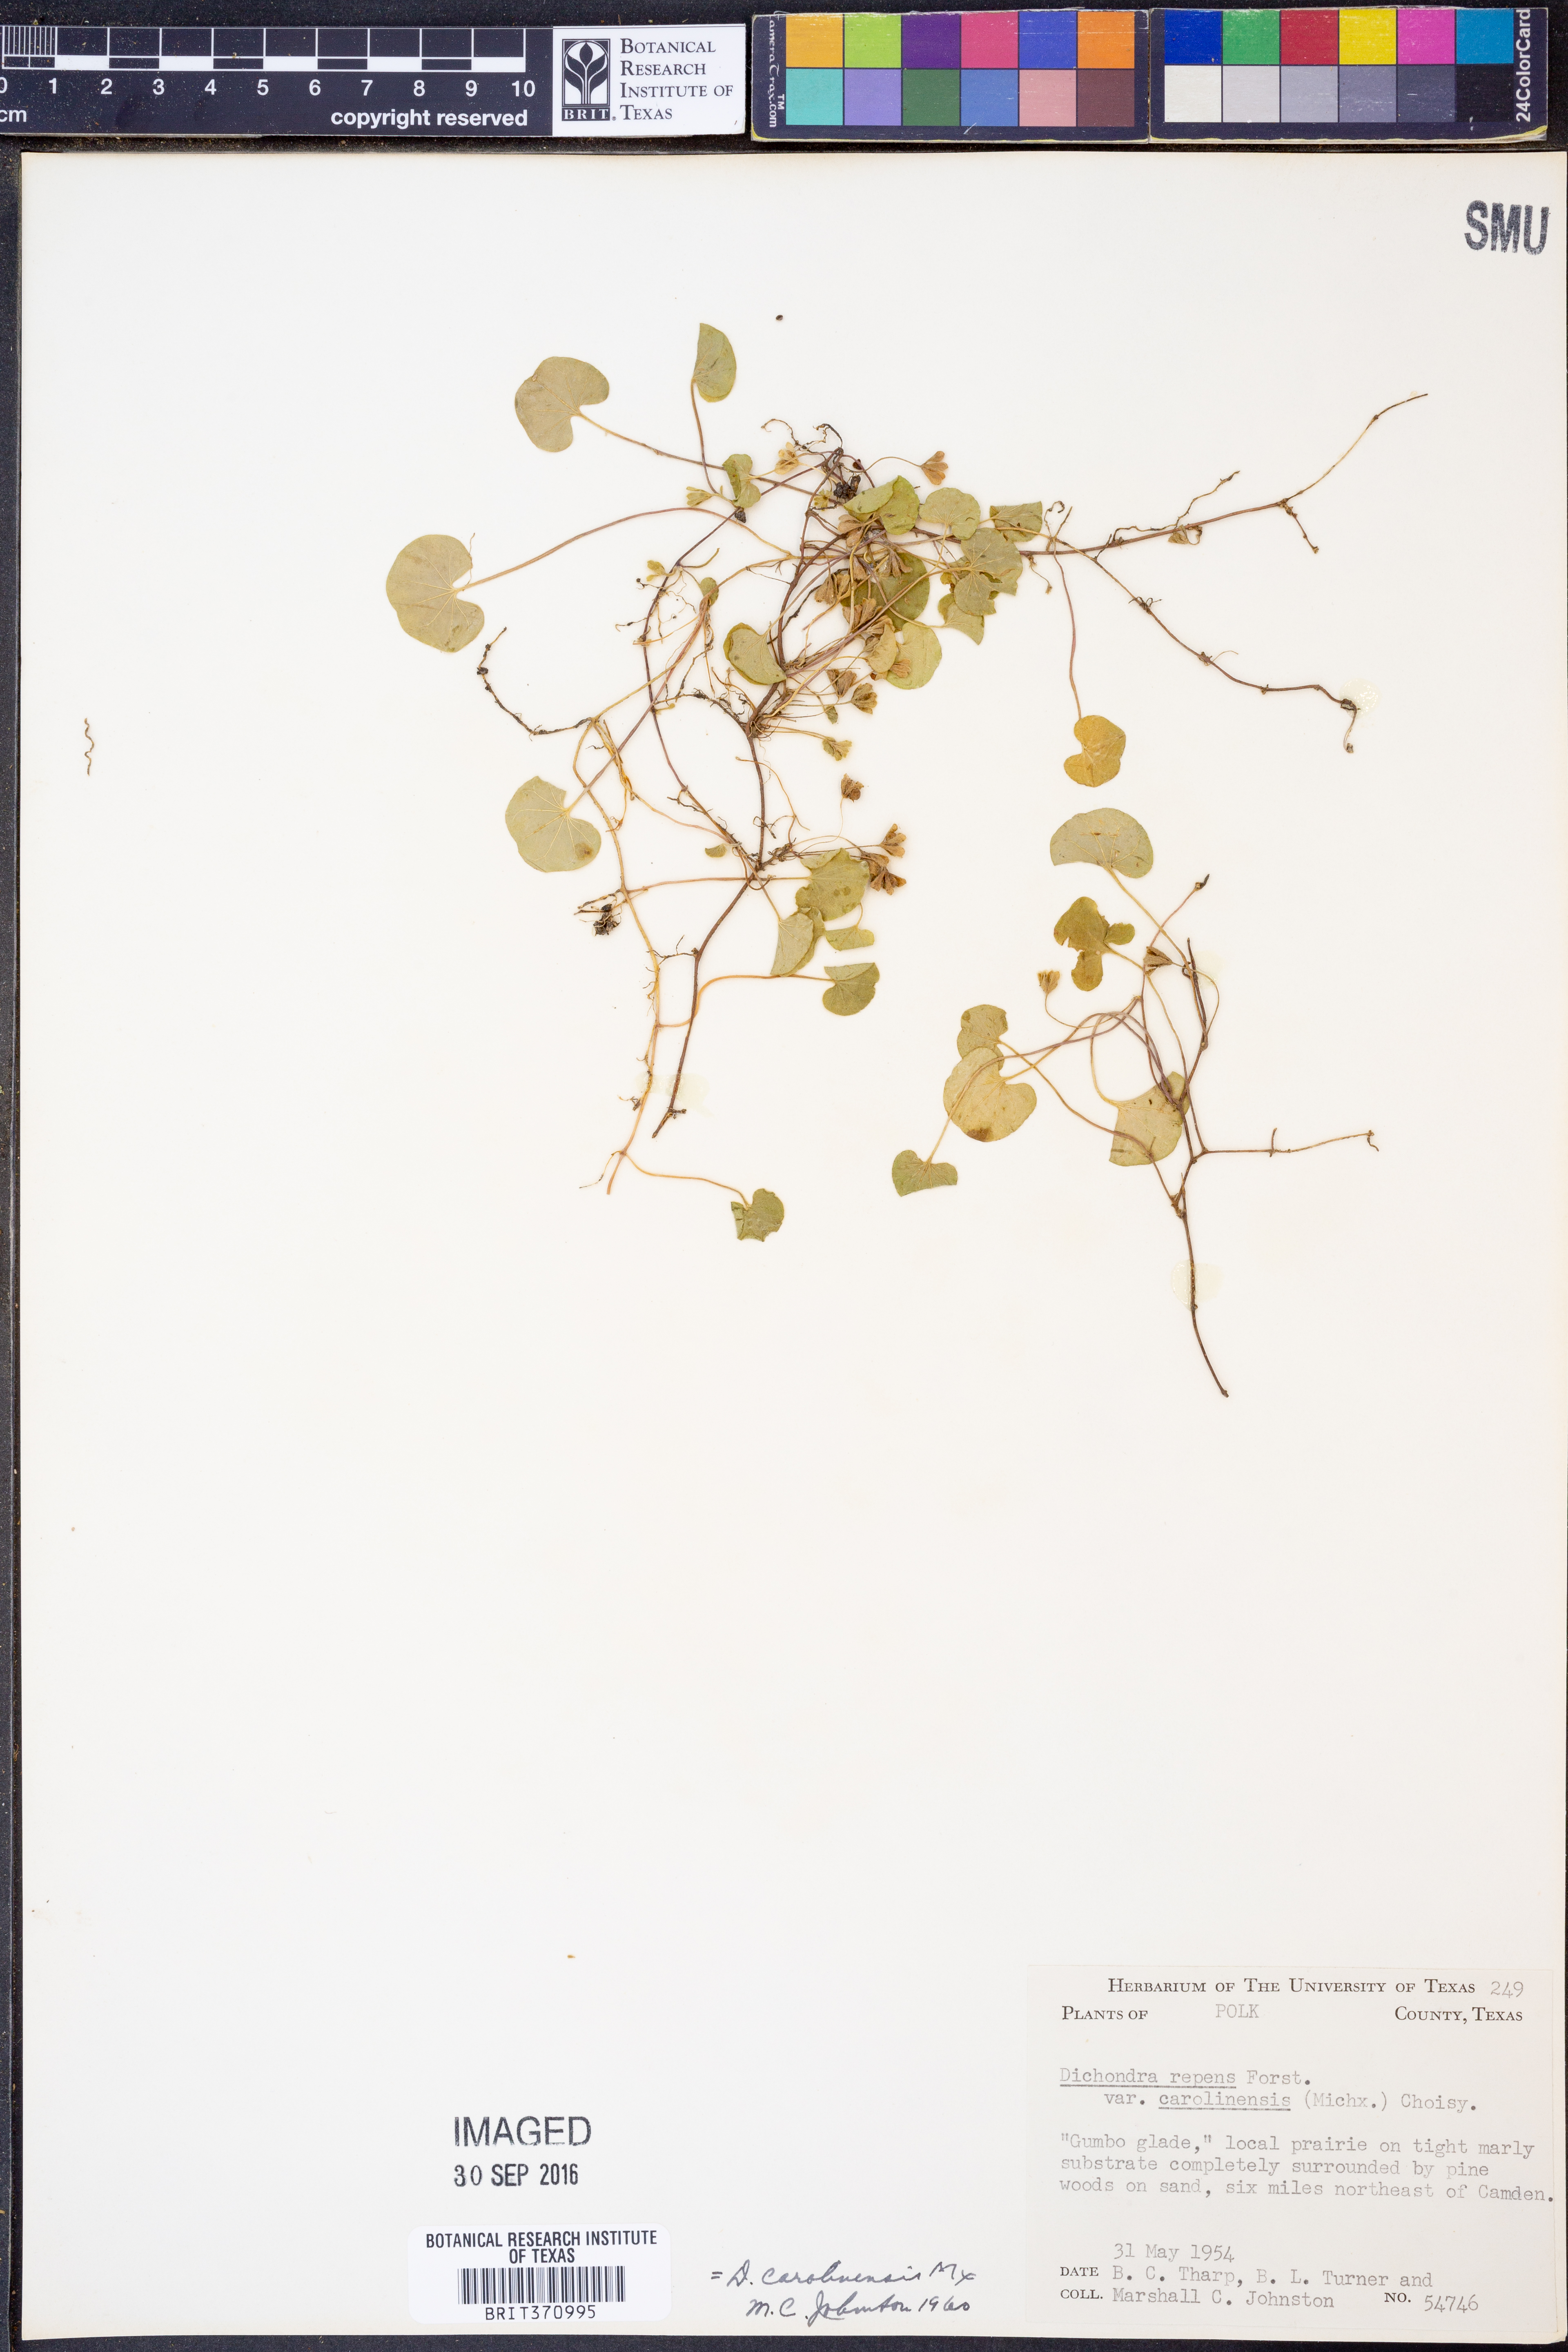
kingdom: Plantae
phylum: Tracheophyta
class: Magnoliopsida
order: Solanales
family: Convolvulaceae
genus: Dichondra
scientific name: Dichondra carolinensis
